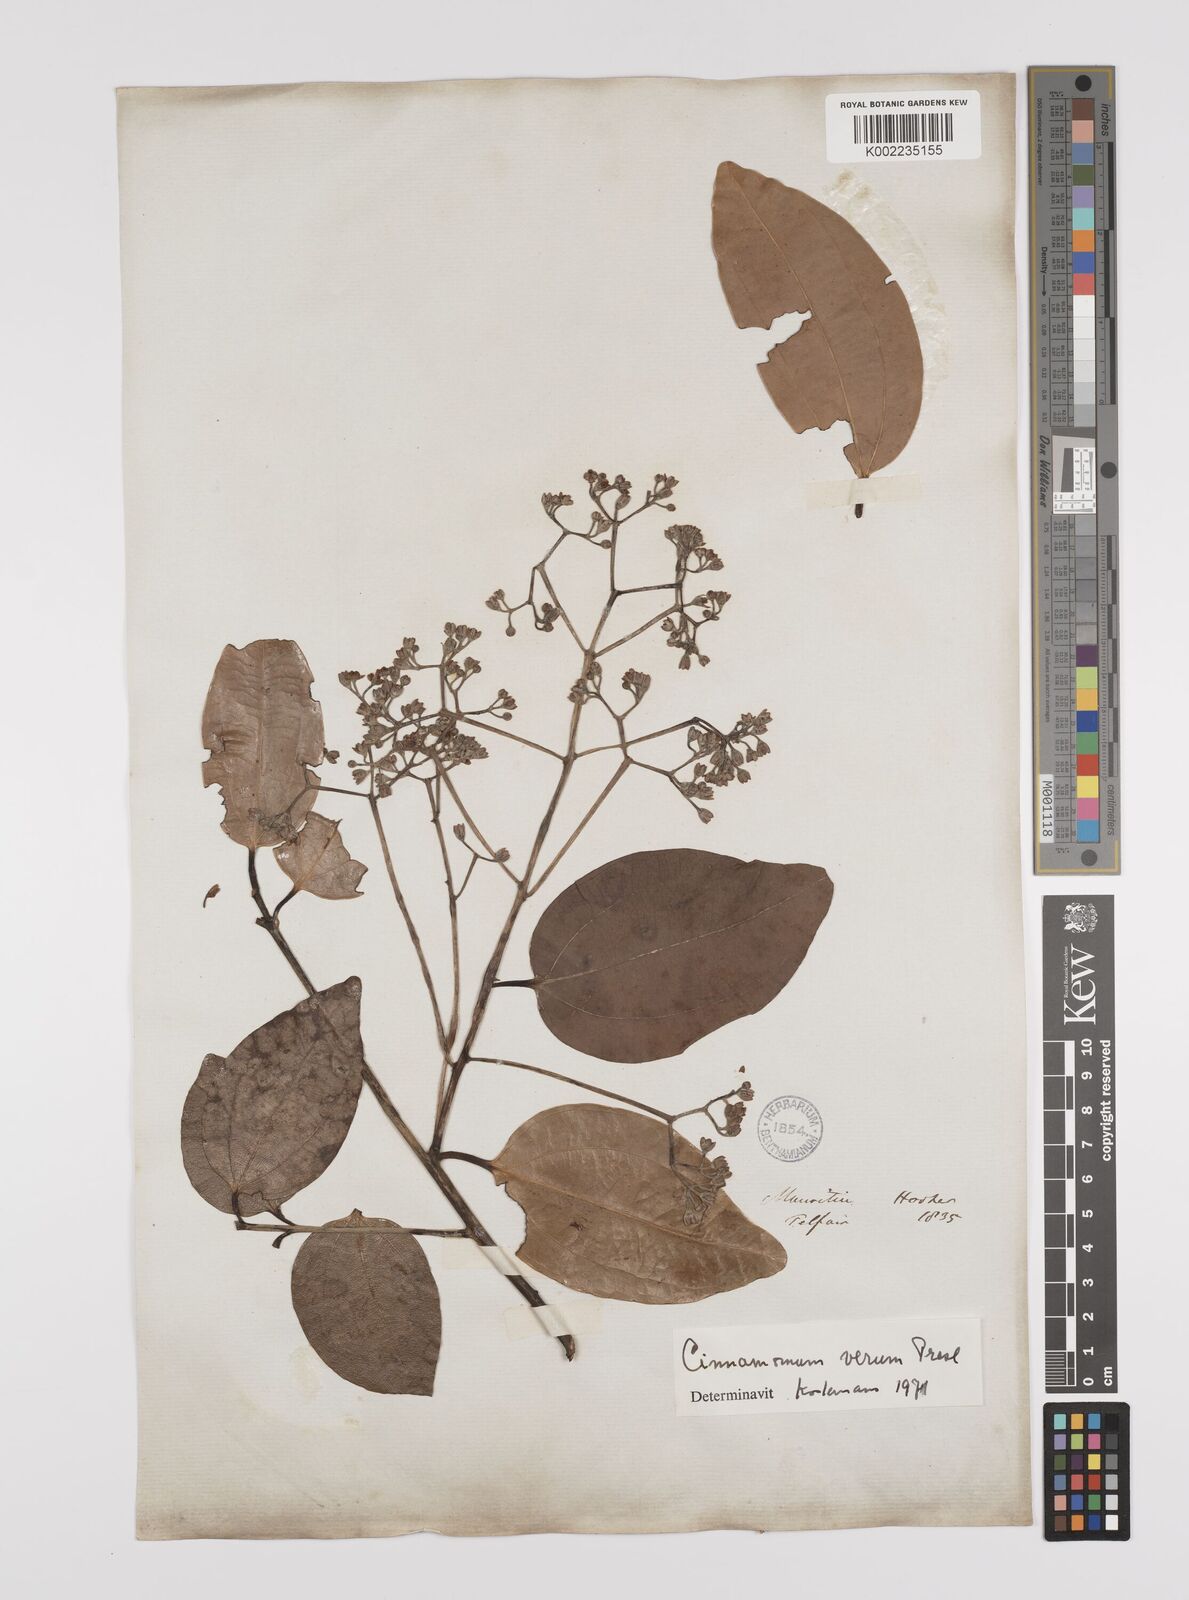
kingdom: Plantae
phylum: Tracheophyta
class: Magnoliopsida
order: Laurales
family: Lauraceae
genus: Cinnamomum
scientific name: Cinnamomum verum
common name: Cinnamon
